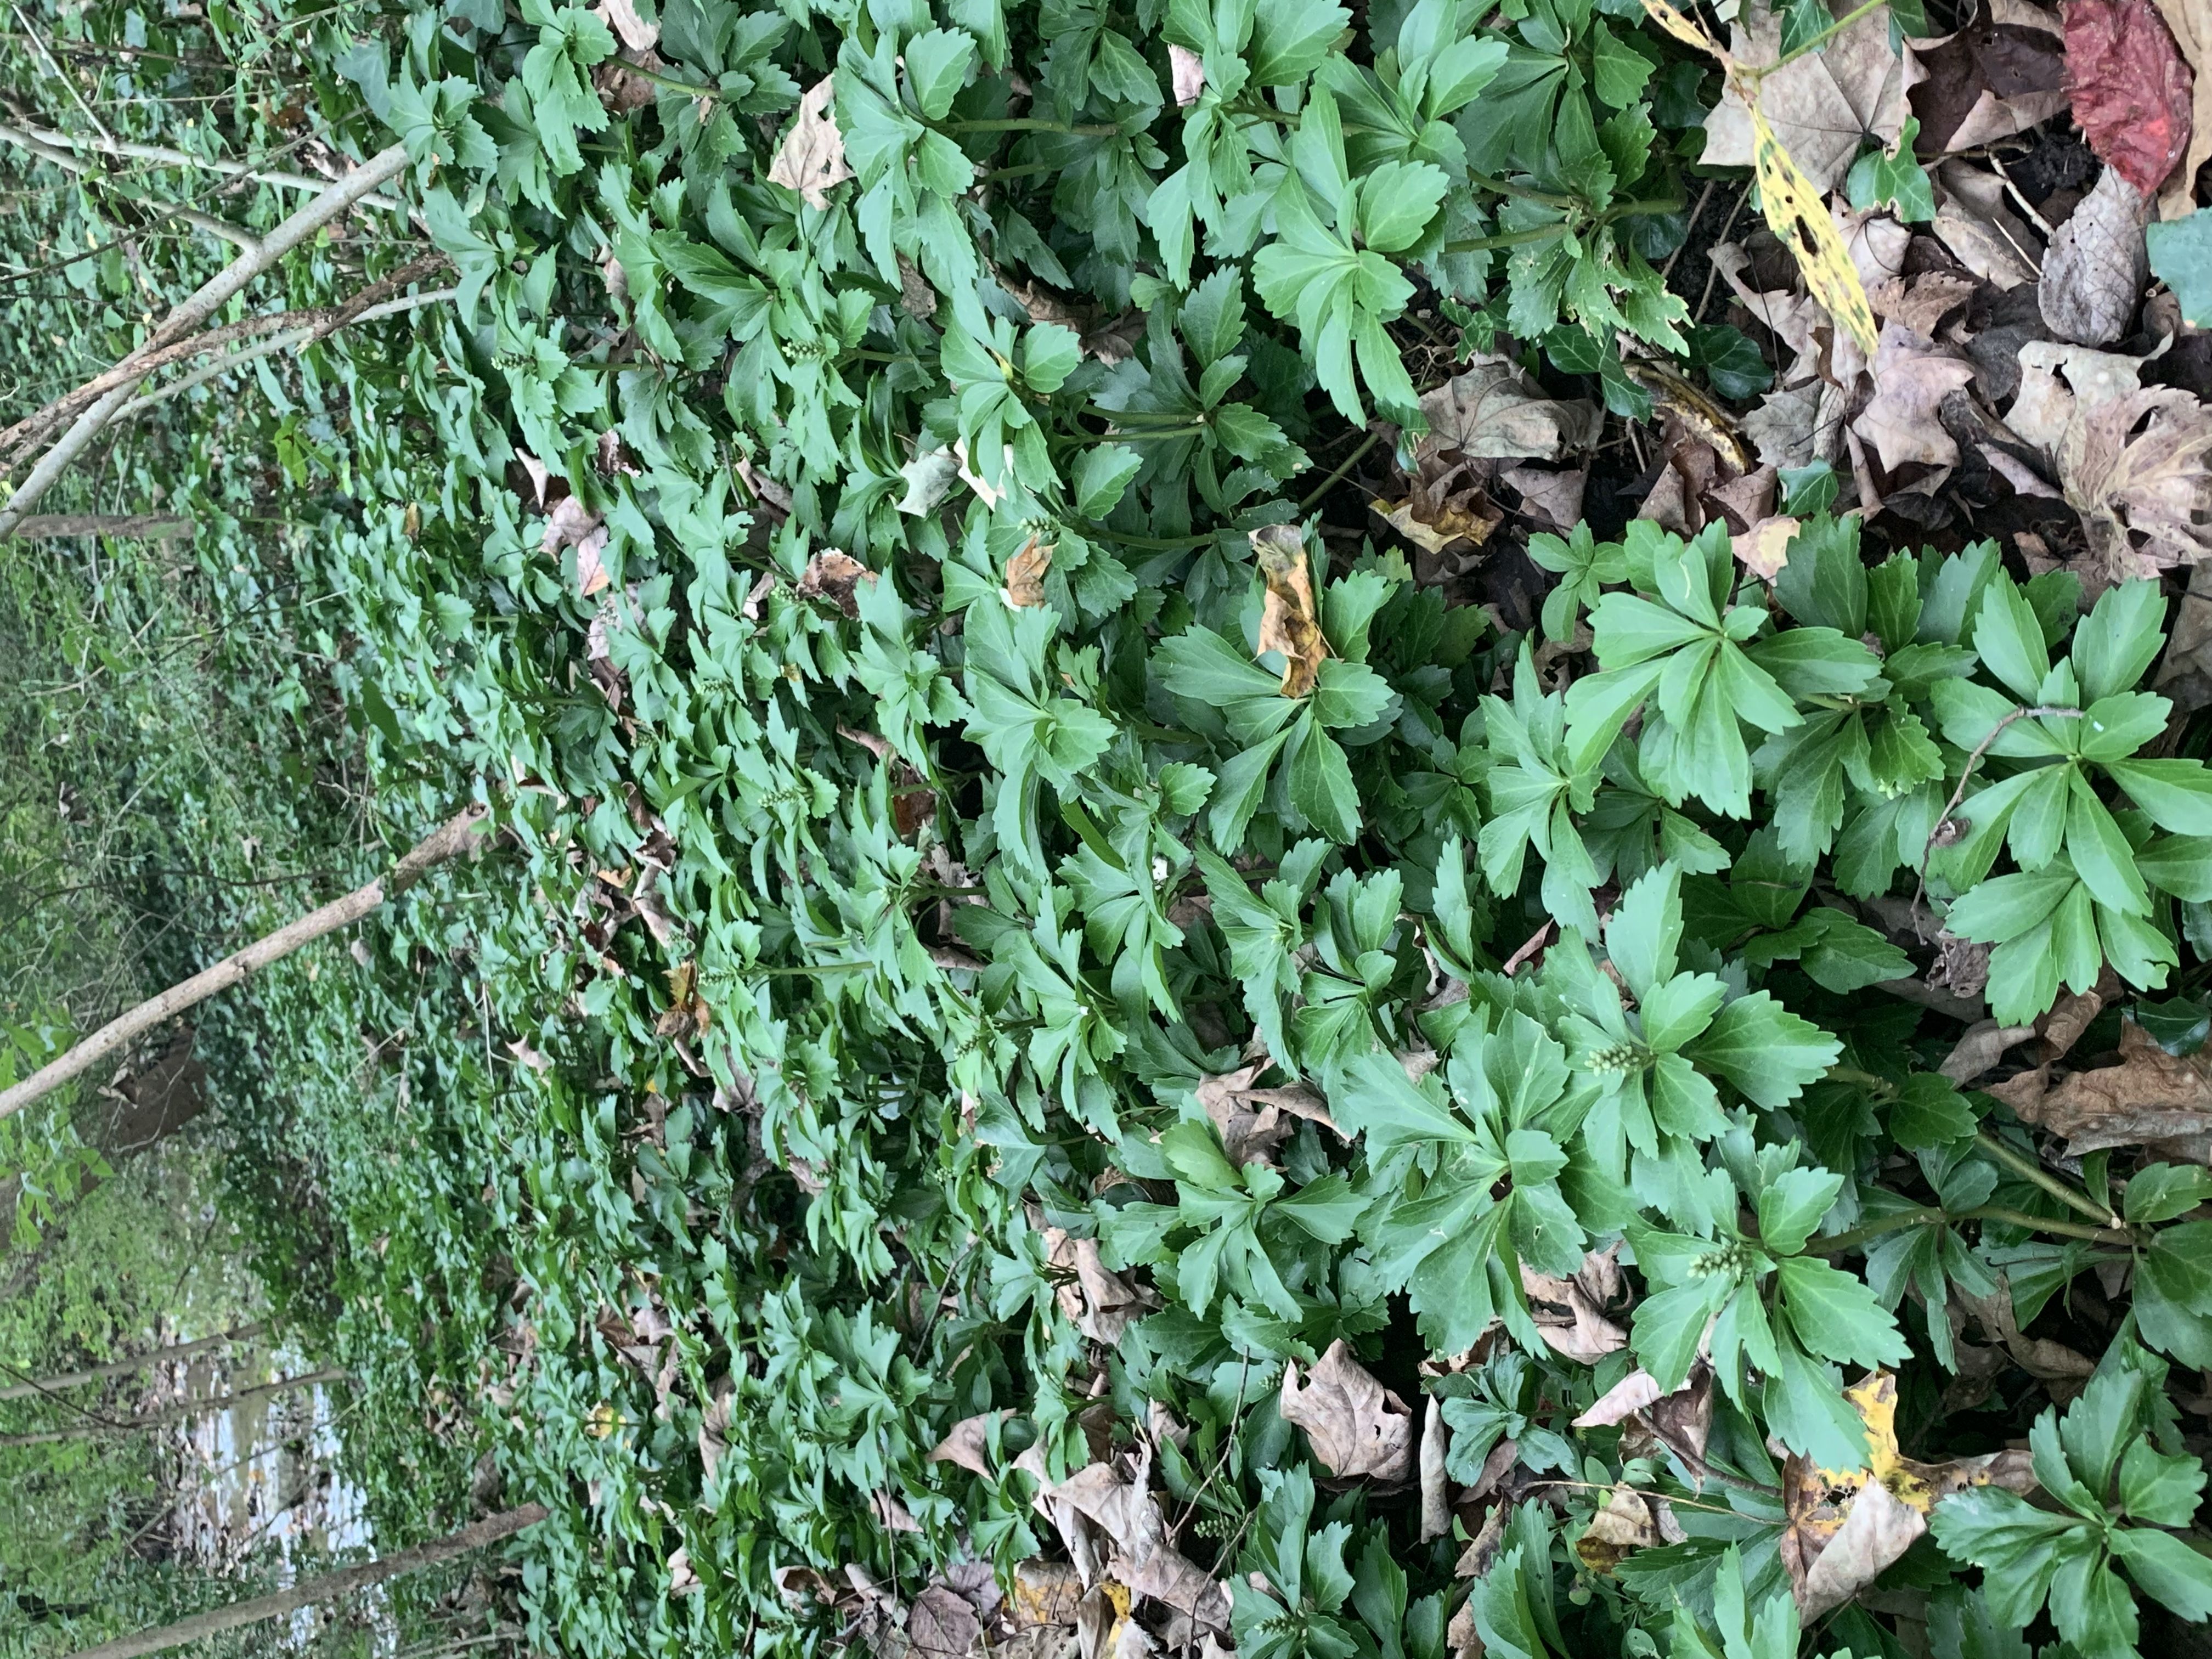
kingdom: Plantae
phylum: Tracheophyta
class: Magnoliopsida
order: Buxales
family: Buxaceae
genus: Pachysandra
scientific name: Pachysandra terminalis
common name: Japanese pachysandra
